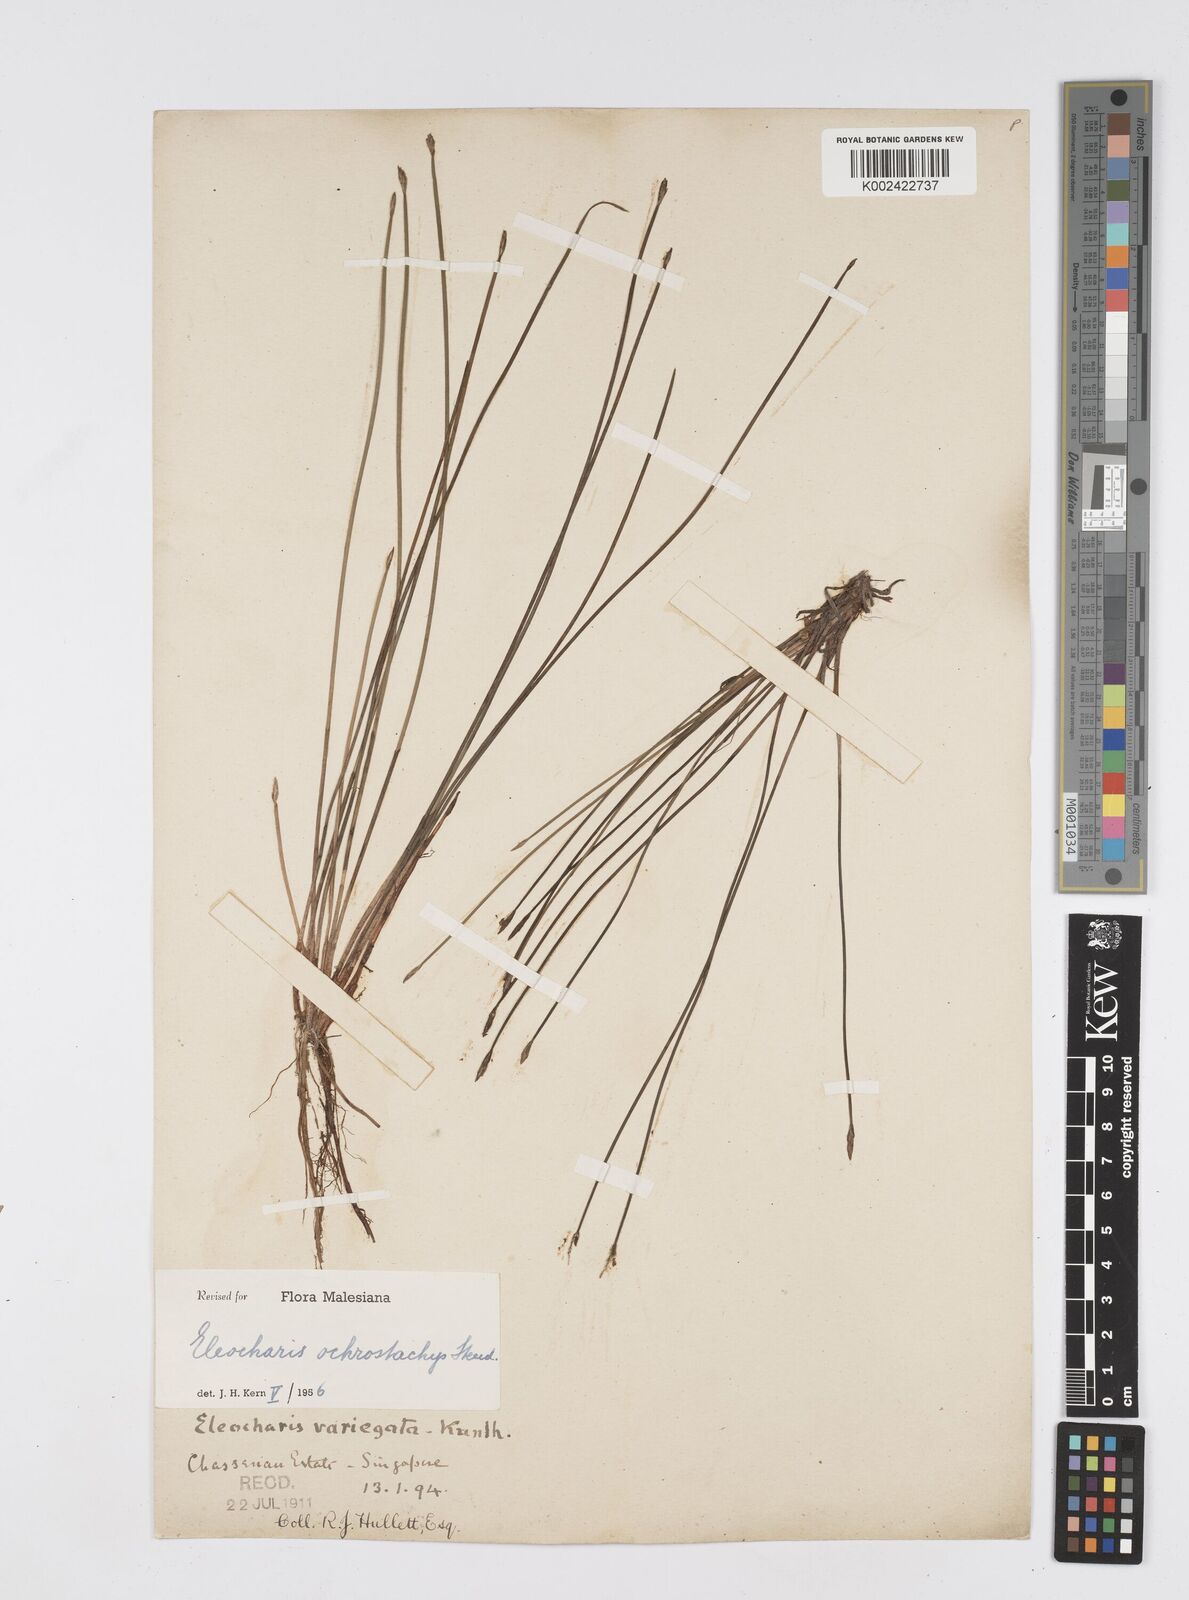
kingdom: Plantae
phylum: Tracheophyta
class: Liliopsida
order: Poales
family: Cyperaceae
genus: Eleocharis
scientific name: Eleocharis ochrostachys
